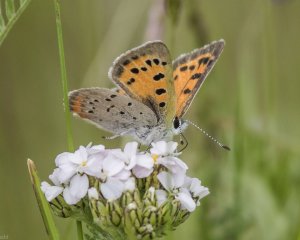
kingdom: Animalia
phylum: Arthropoda
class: Insecta
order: Lepidoptera
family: Lycaenidae
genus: Lycaena
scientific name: Lycaena phlaeas
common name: American Copper
